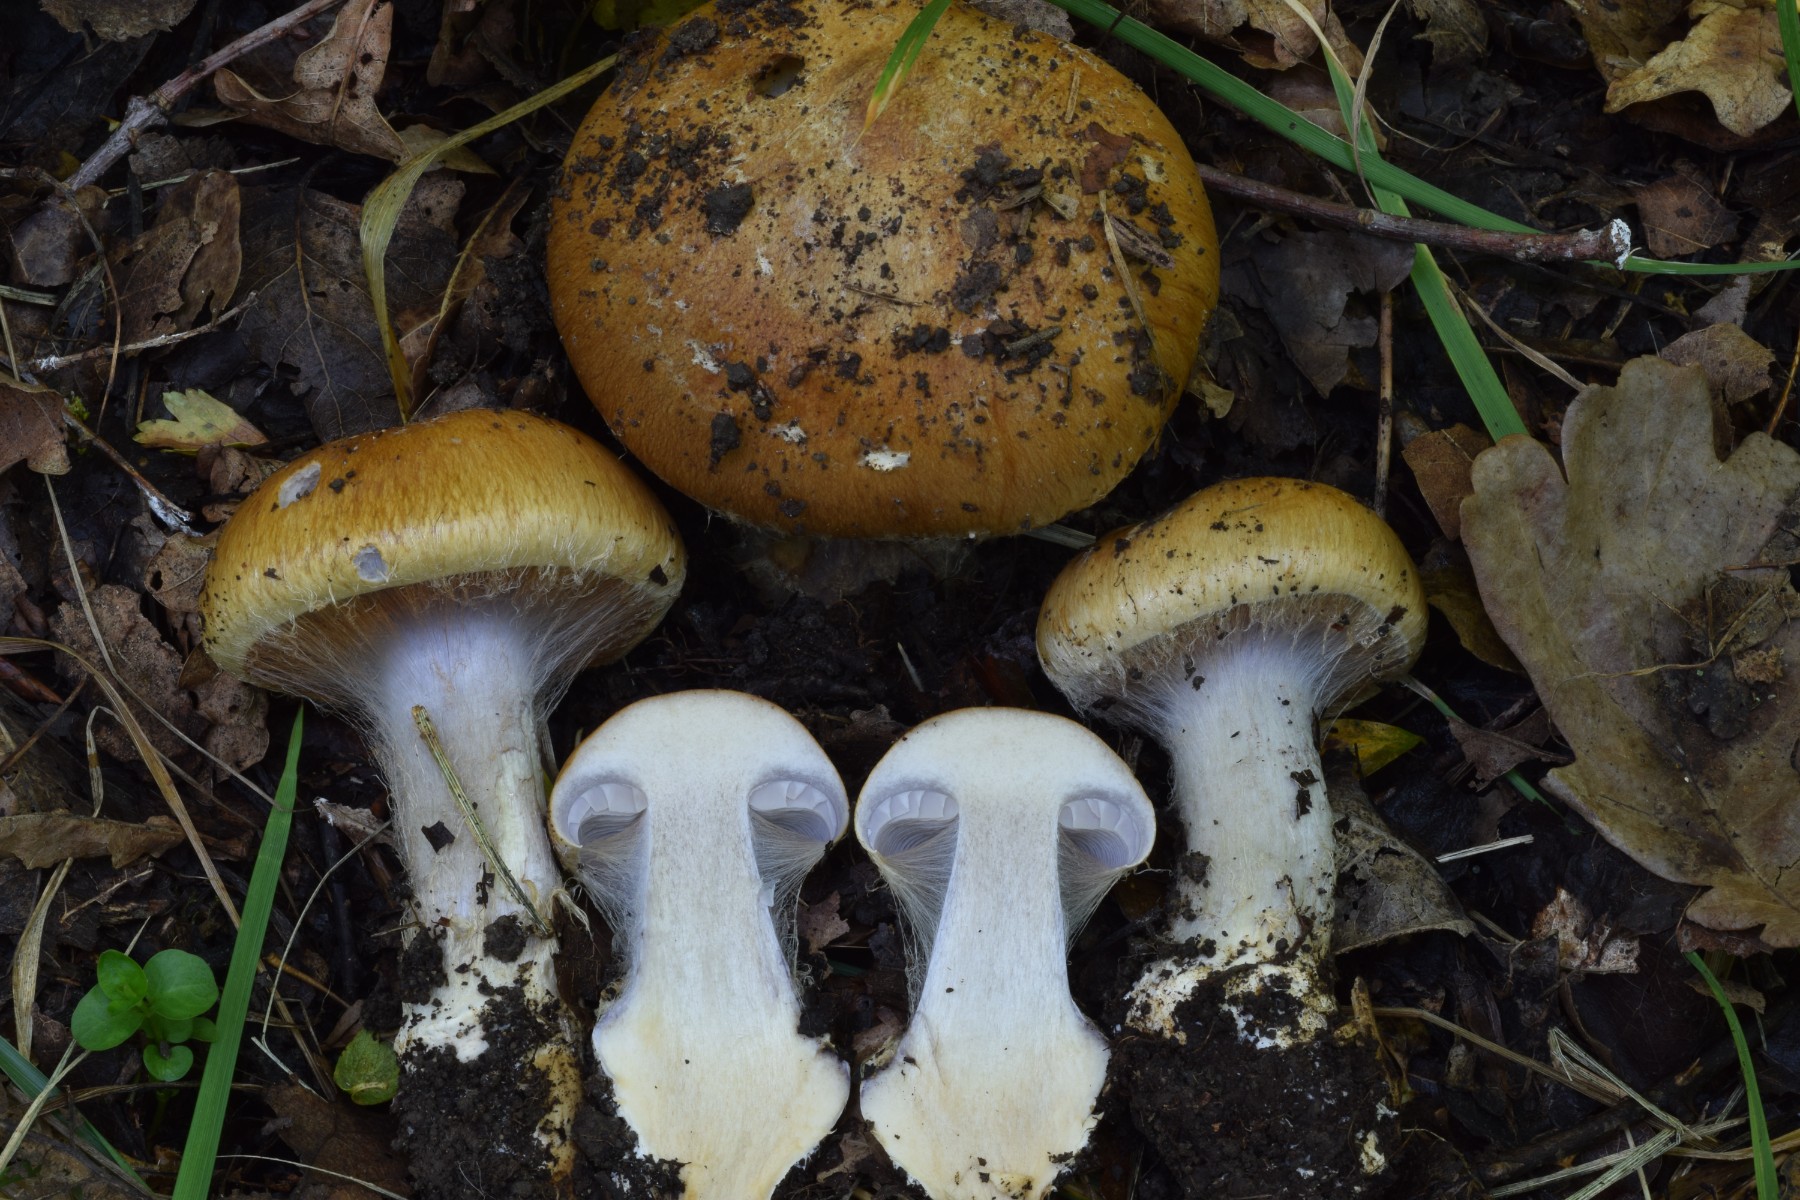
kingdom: Fungi
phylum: Basidiomycota
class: Agaricomycetes
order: Agaricales
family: Cortinariaceae
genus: Phlegmacium
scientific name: Phlegmacium scaurocaninum
